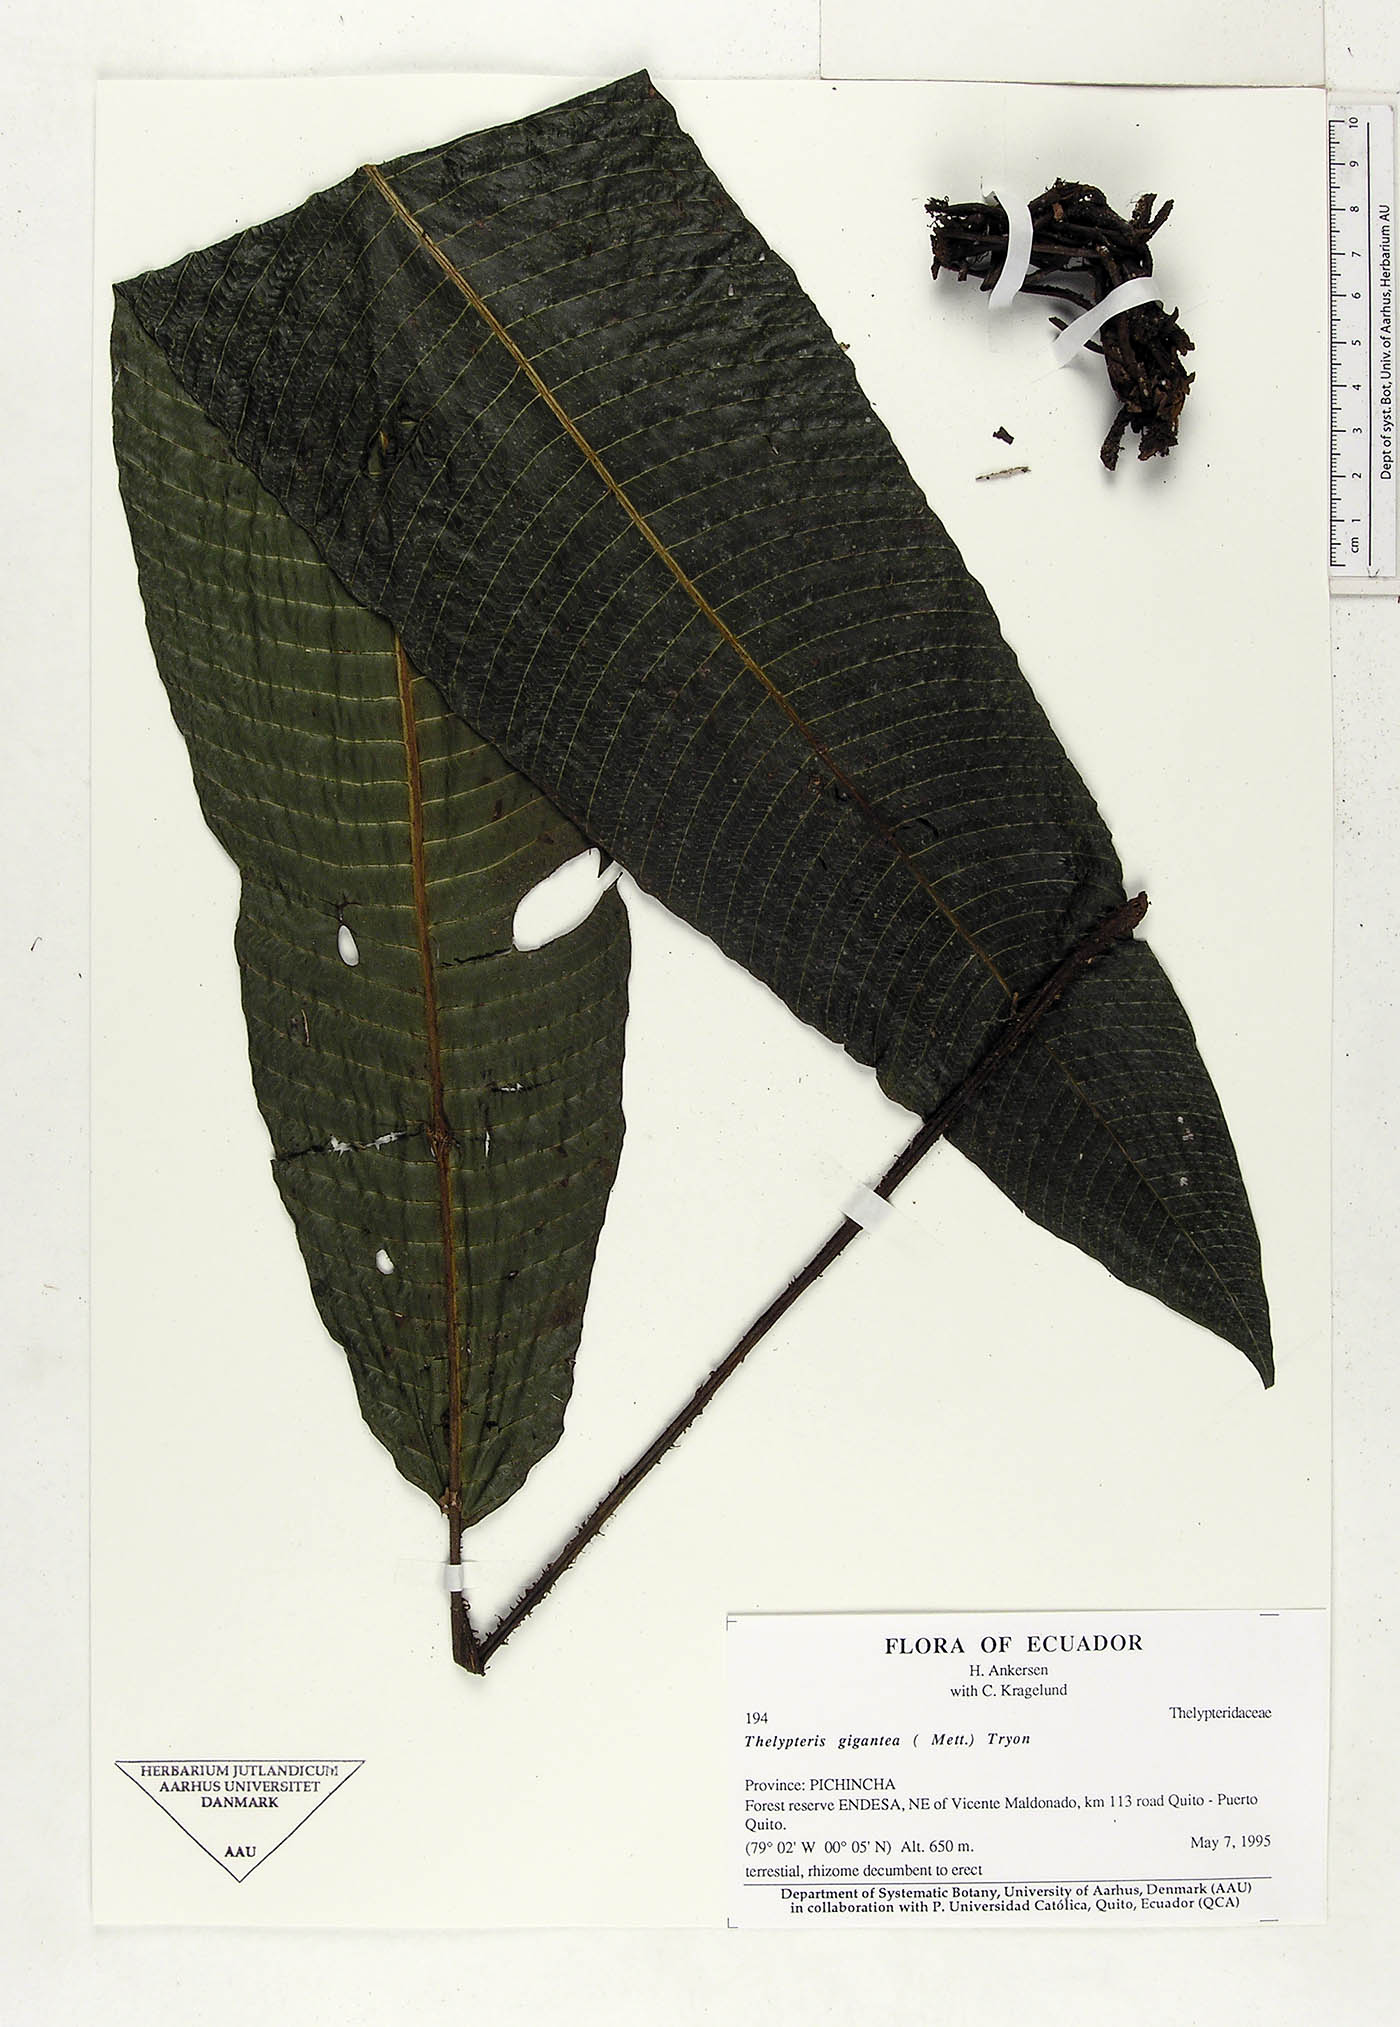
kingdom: Plantae
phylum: Tracheophyta
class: Polypodiopsida
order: Polypodiales
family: Thelypteridaceae
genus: Meniscium
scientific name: Meniscium giganteum
